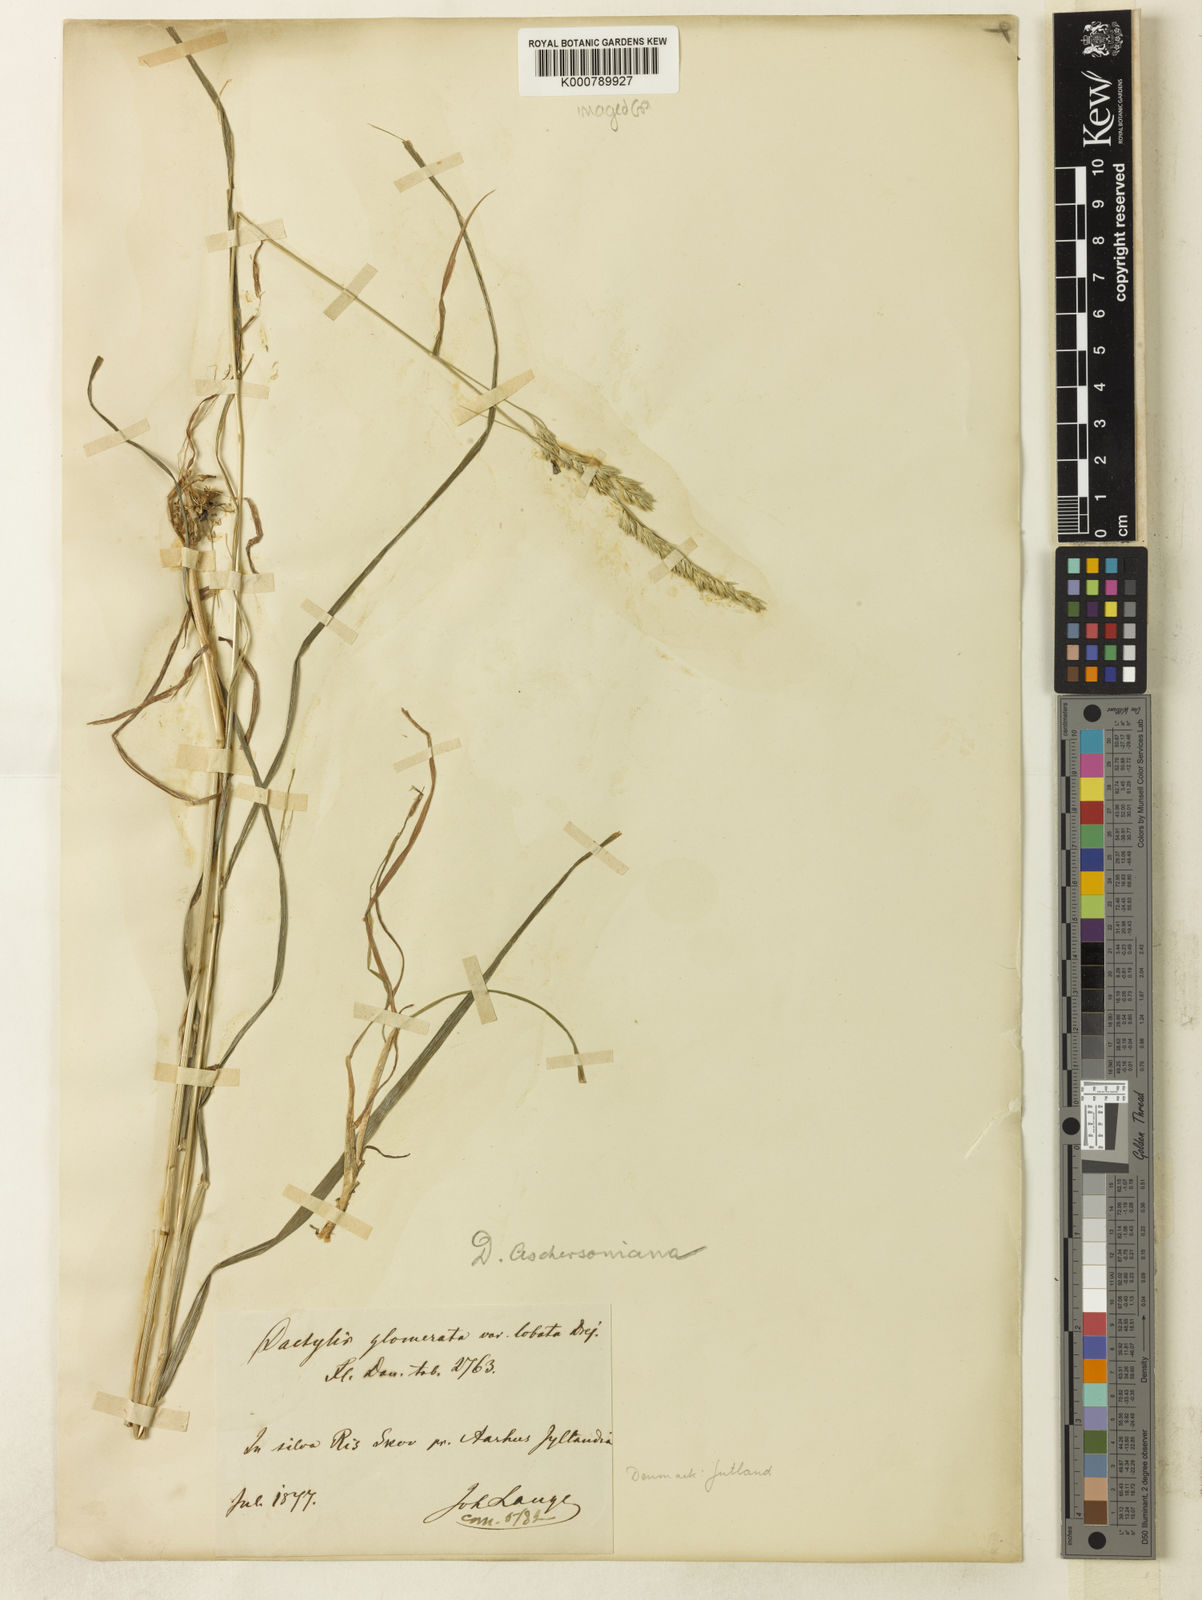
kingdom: Plantae
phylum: Tracheophyta
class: Liliopsida
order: Poales
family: Poaceae
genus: Dactylis
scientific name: Dactylis glomerata
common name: Orchardgrass
